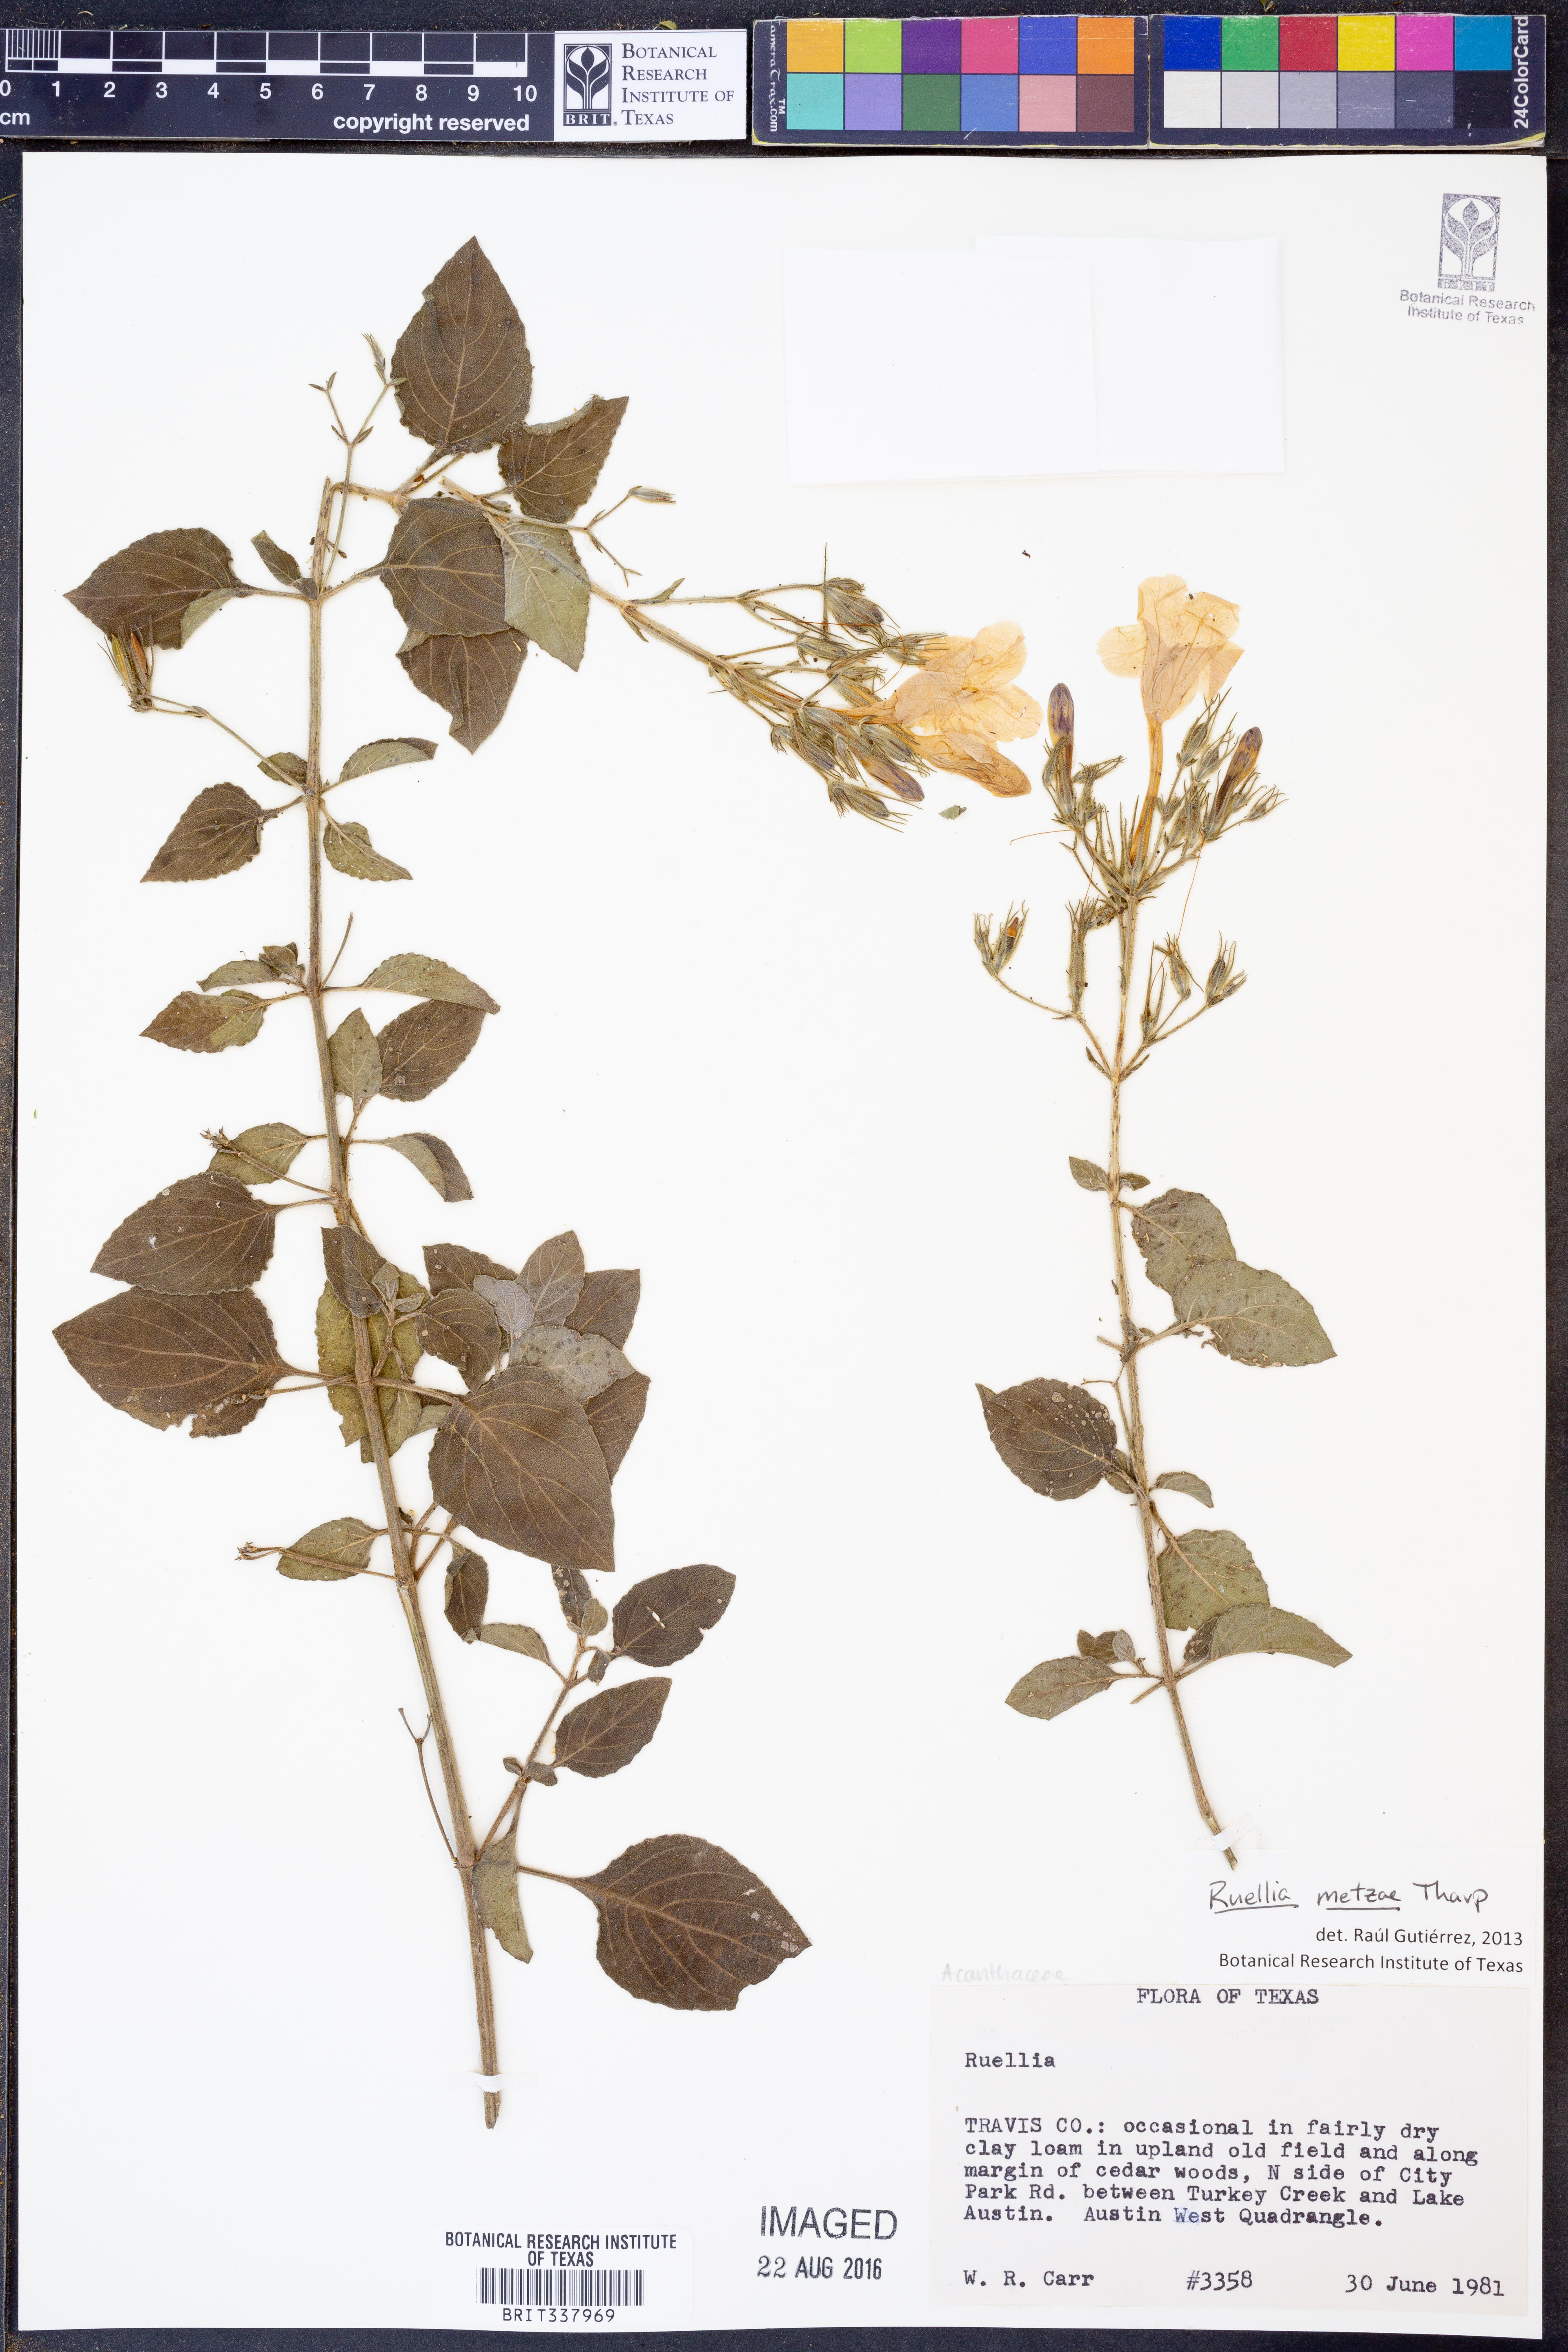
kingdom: Plantae
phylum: Tracheophyta
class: Magnoliopsida
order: Lamiales
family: Acanthaceae
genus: Ruellia
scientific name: Ruellia metzae
